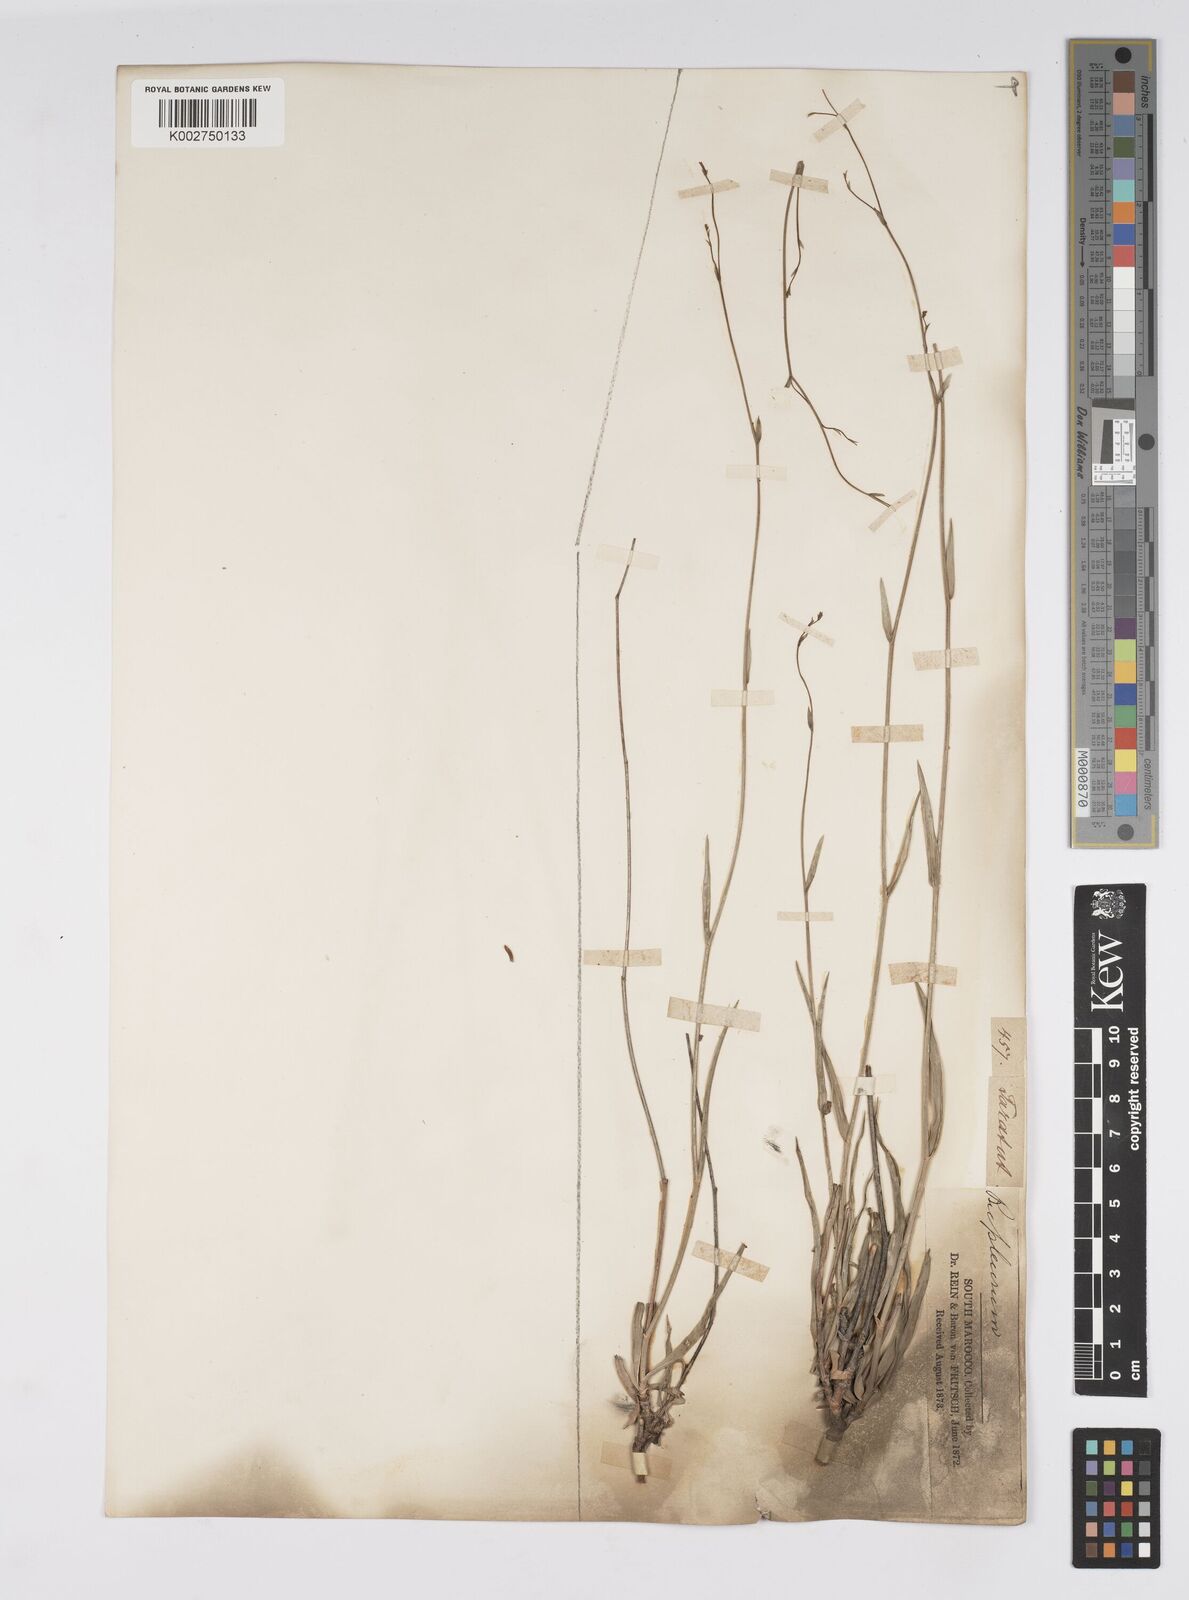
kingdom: Plantae
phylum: Tracheophyta
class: Magnoliopsida
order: Apiales
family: Apiaceae
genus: Bupleurum
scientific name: Bupleurum balansae
